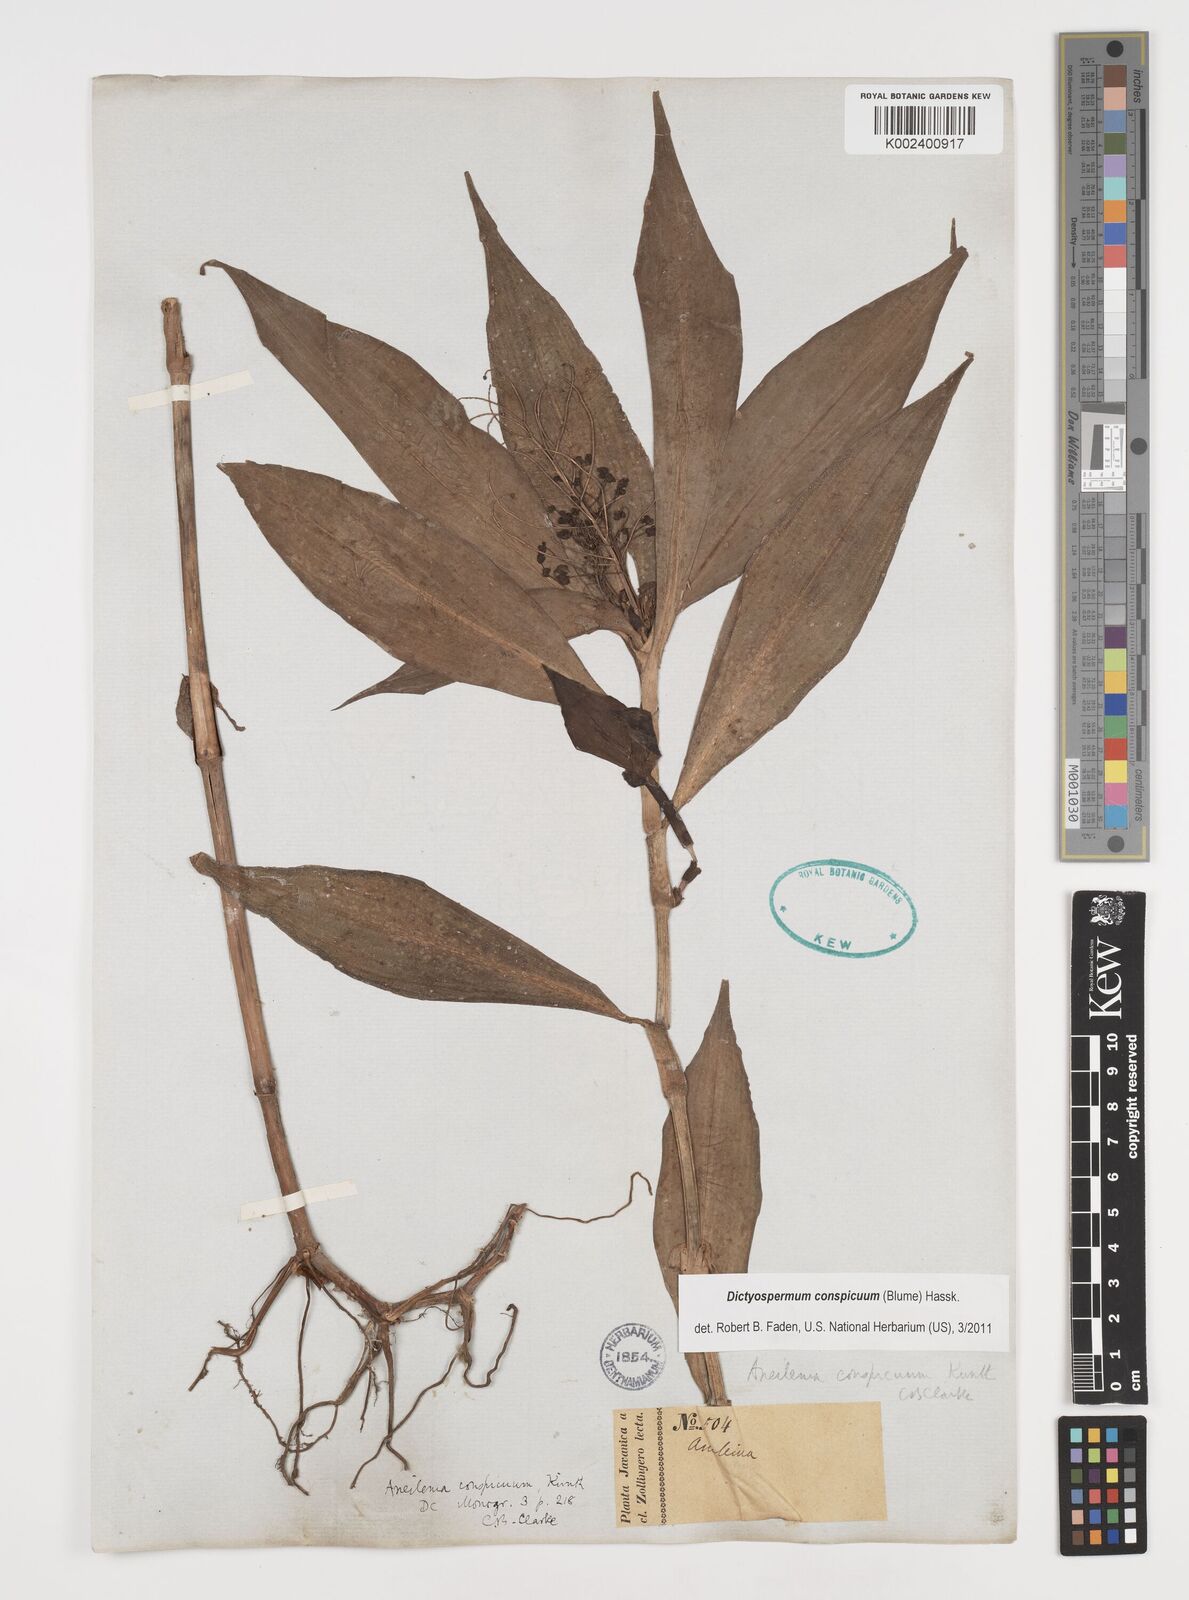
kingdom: Plantae
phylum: Tracheophyta
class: Liliopsida
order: Commelinales
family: Commelinaceae
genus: Dictyospermum
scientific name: Dictyospermum conspicuum
